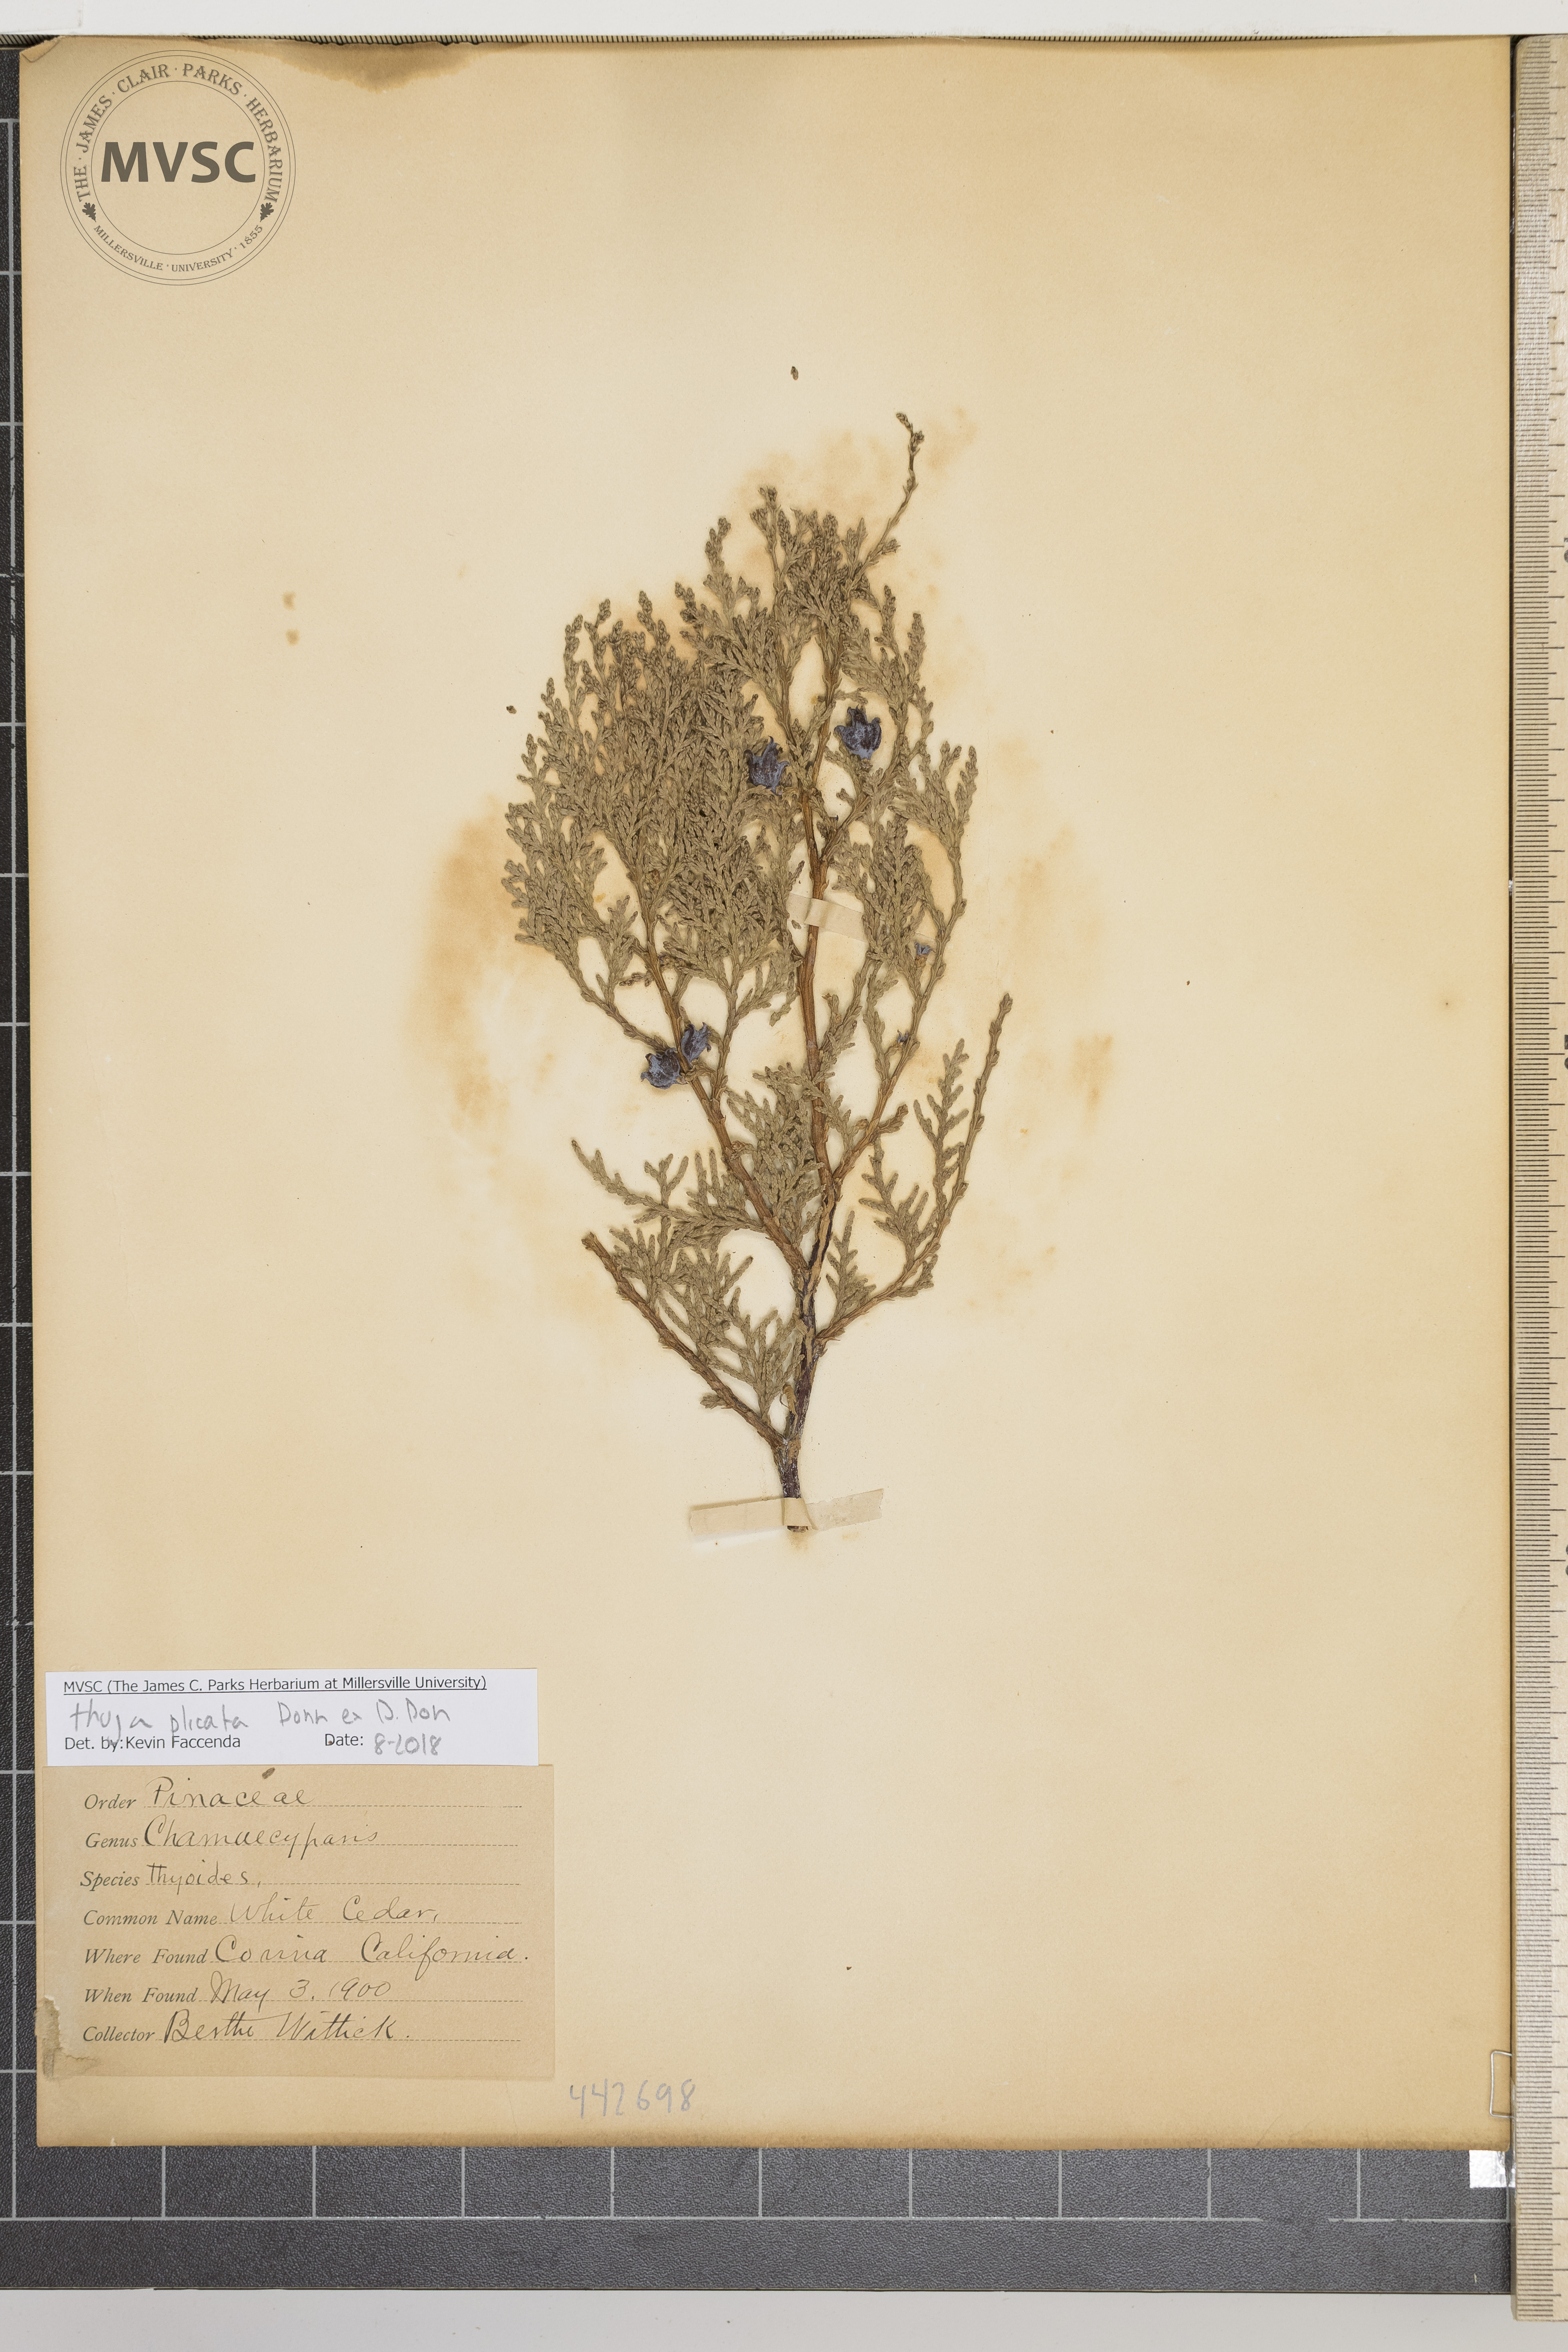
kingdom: Plantae
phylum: Tracheophyta
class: Pinopsida
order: Pinales
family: Cupressaceae
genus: Platycladus
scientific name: Platycladus orientalis
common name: Chinese thuja
